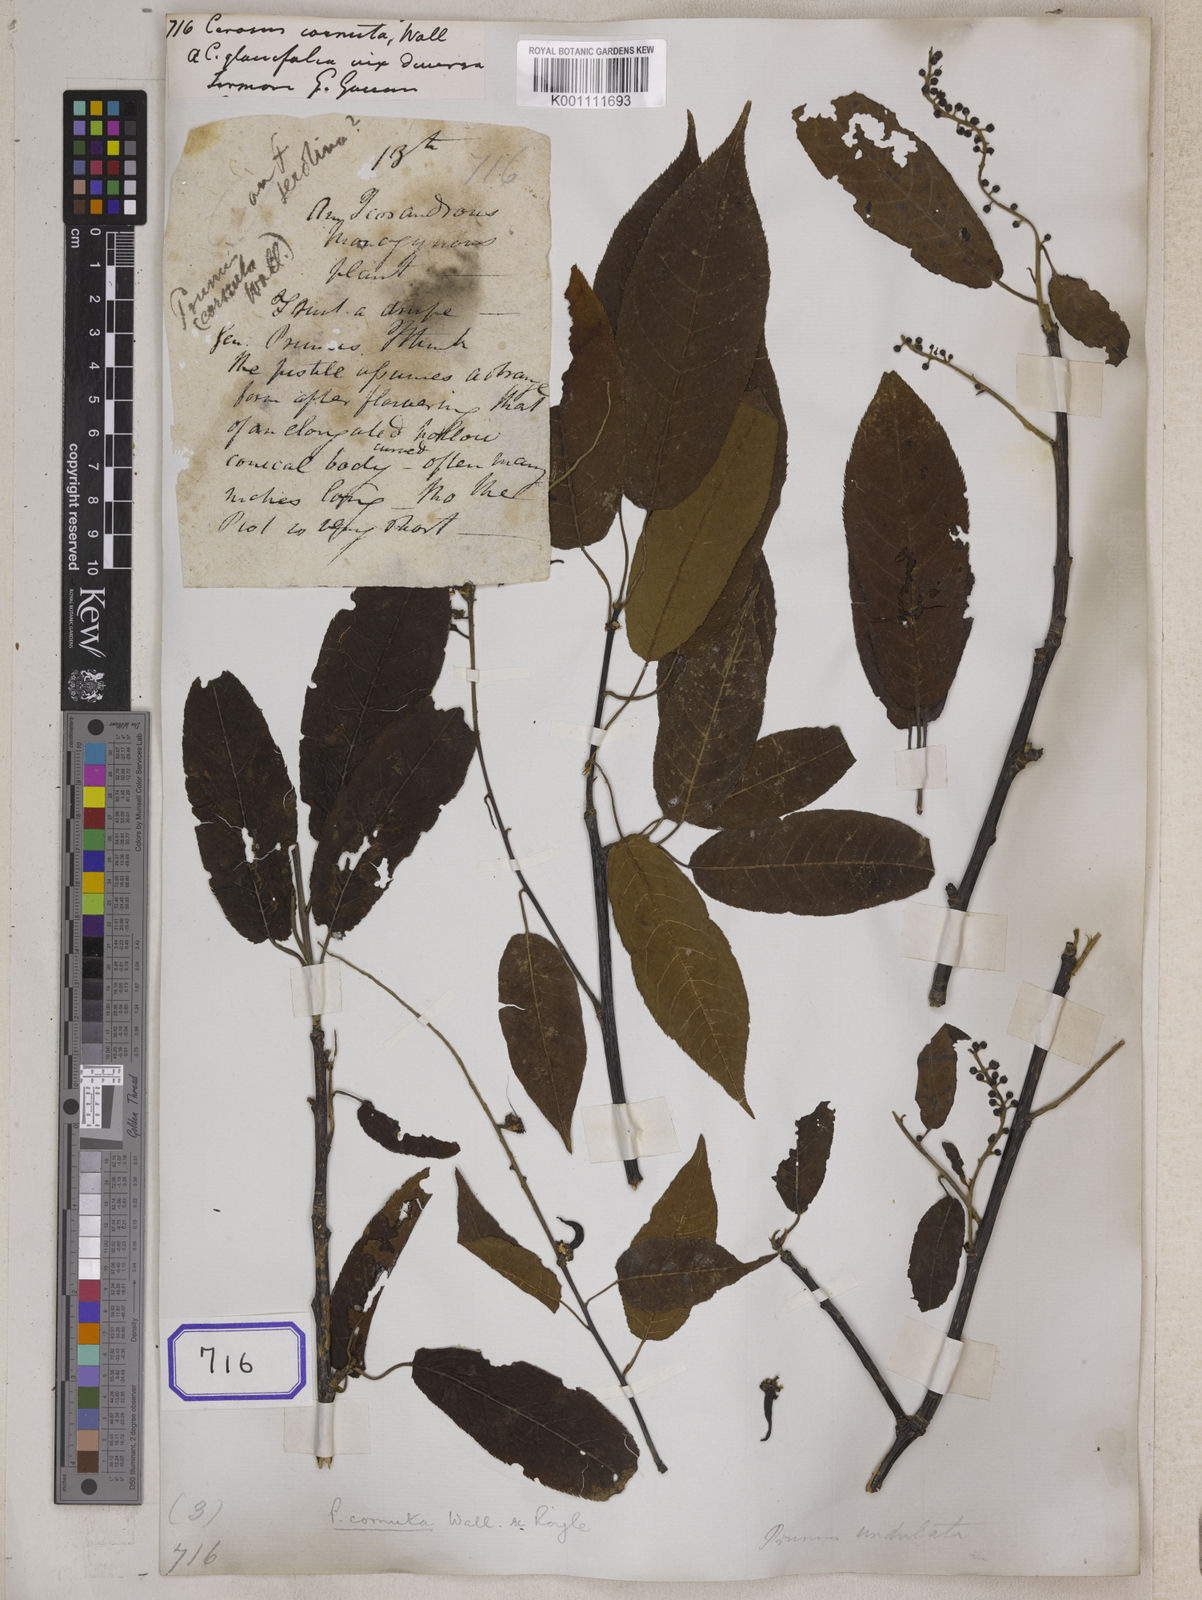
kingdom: Plantae
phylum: Tracheophyta
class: Magnoliopsida
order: Rosales
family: Rosaceae
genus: Prunus
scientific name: Prunus Cerasus myrtifolia
